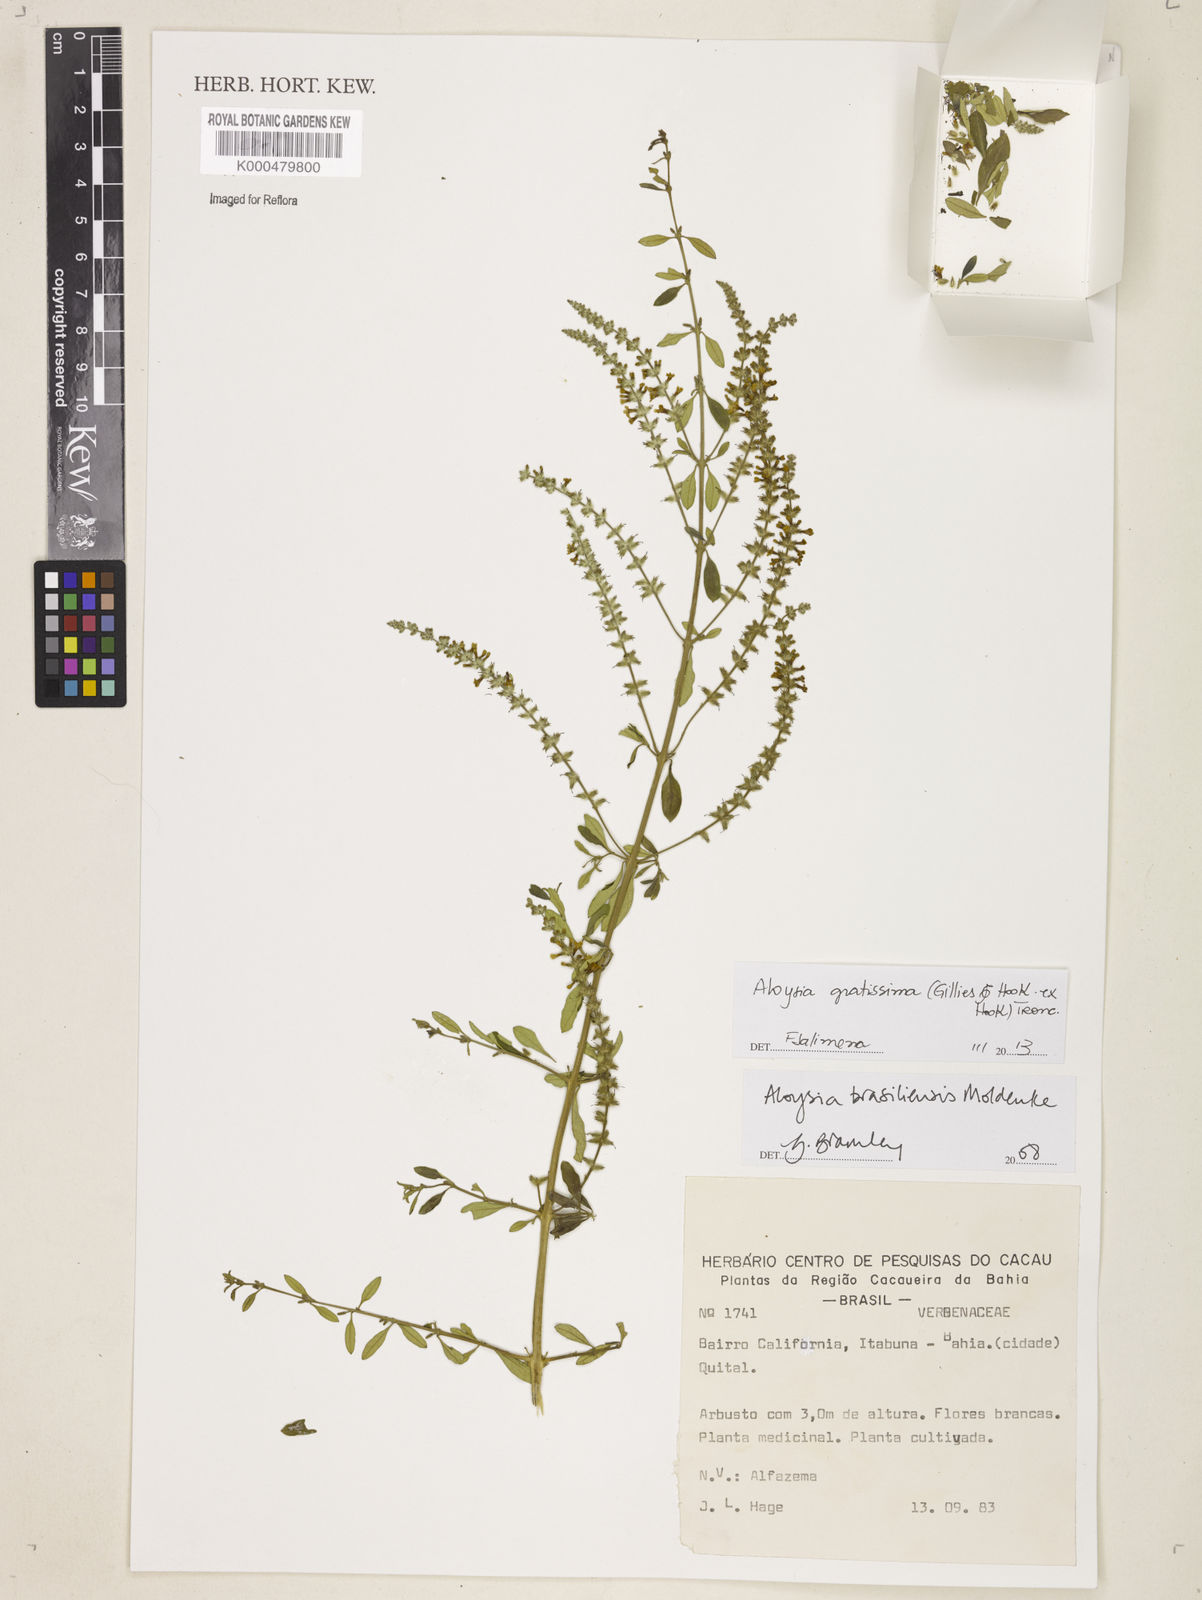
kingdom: Plantae
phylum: Tracheophyta
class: Magnoliopsida
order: Lamiales
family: Verbenaceae
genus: Aloysia
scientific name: Aloysia brasiliensis
